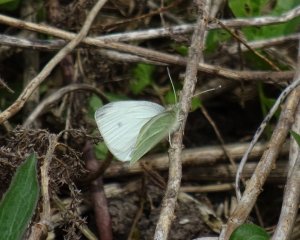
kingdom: Animalia
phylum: Arthropoda
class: Insecta
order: Lepidoptera
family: Pieridae
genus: Pieris
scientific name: Pieris rapae
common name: Cabbage White
